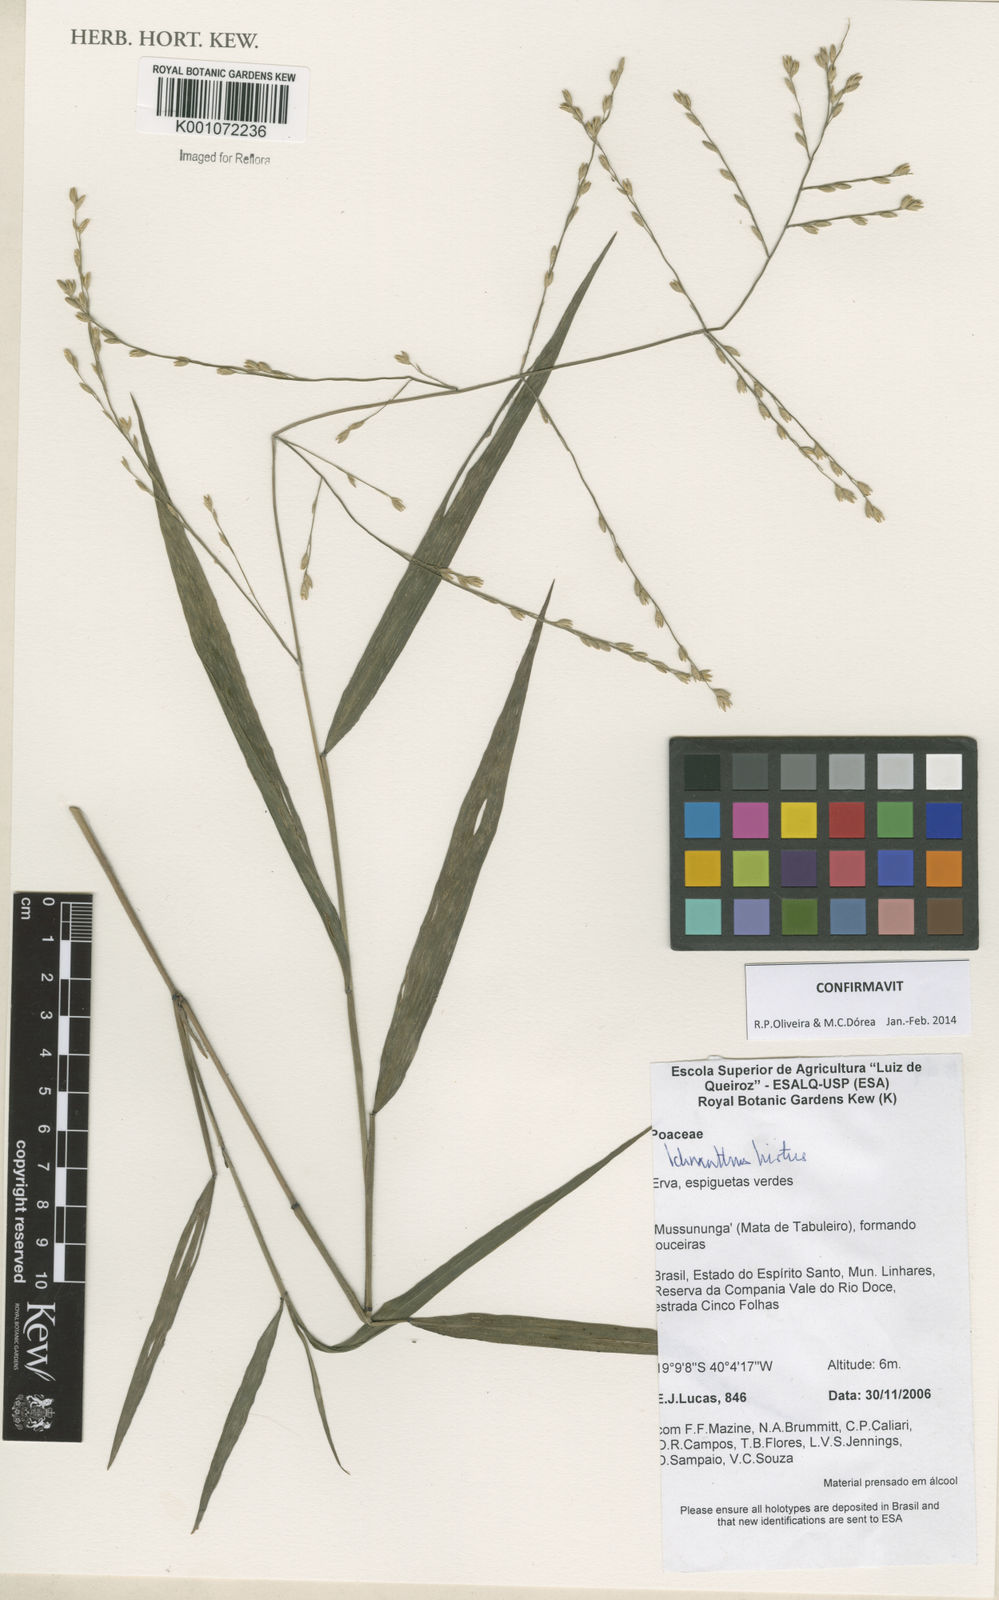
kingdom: Plantae
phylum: Tracheophyta
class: Liliopsida
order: Poales
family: Poaceae
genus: Ichnanthus
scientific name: Ichnanthus hirtus
